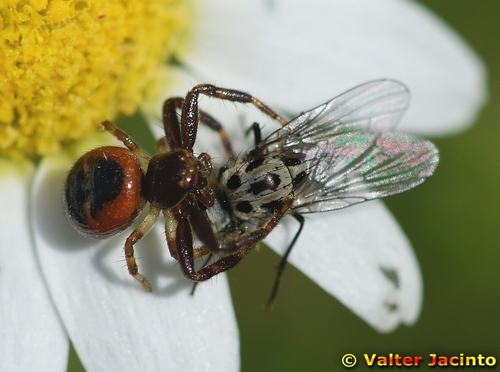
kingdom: Animalia
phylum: Arthropoda
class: Arachnida
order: Araneae
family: Thomisidae
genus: Synema
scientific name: Synema globosum
